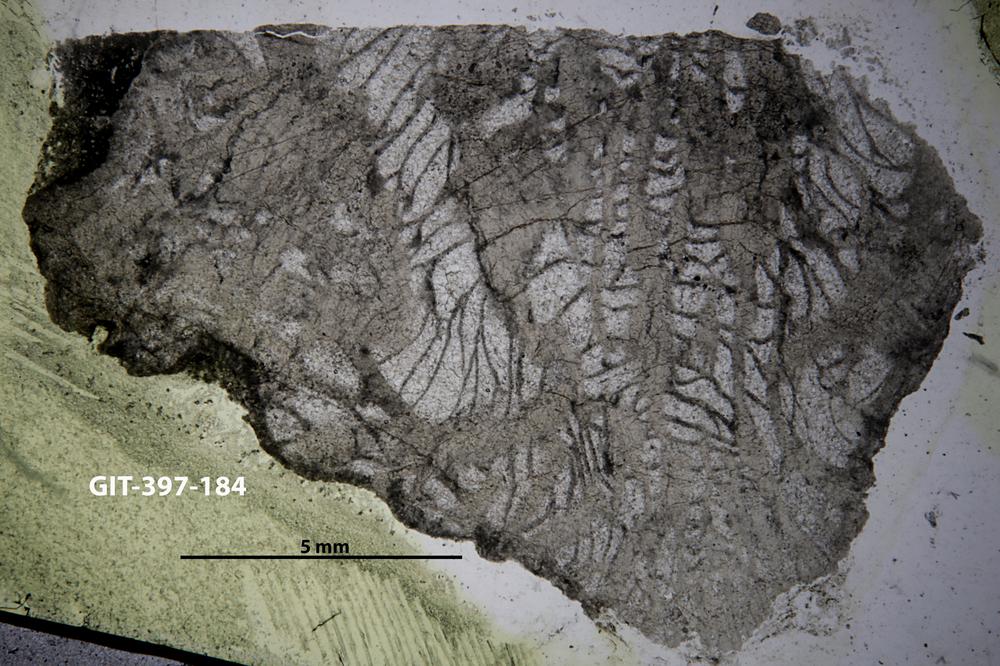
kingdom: Animalia
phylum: Cnidaria
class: Anthozoa
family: Kyphophyllidae
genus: Pilophyllum
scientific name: Pilophyllum zonatum
